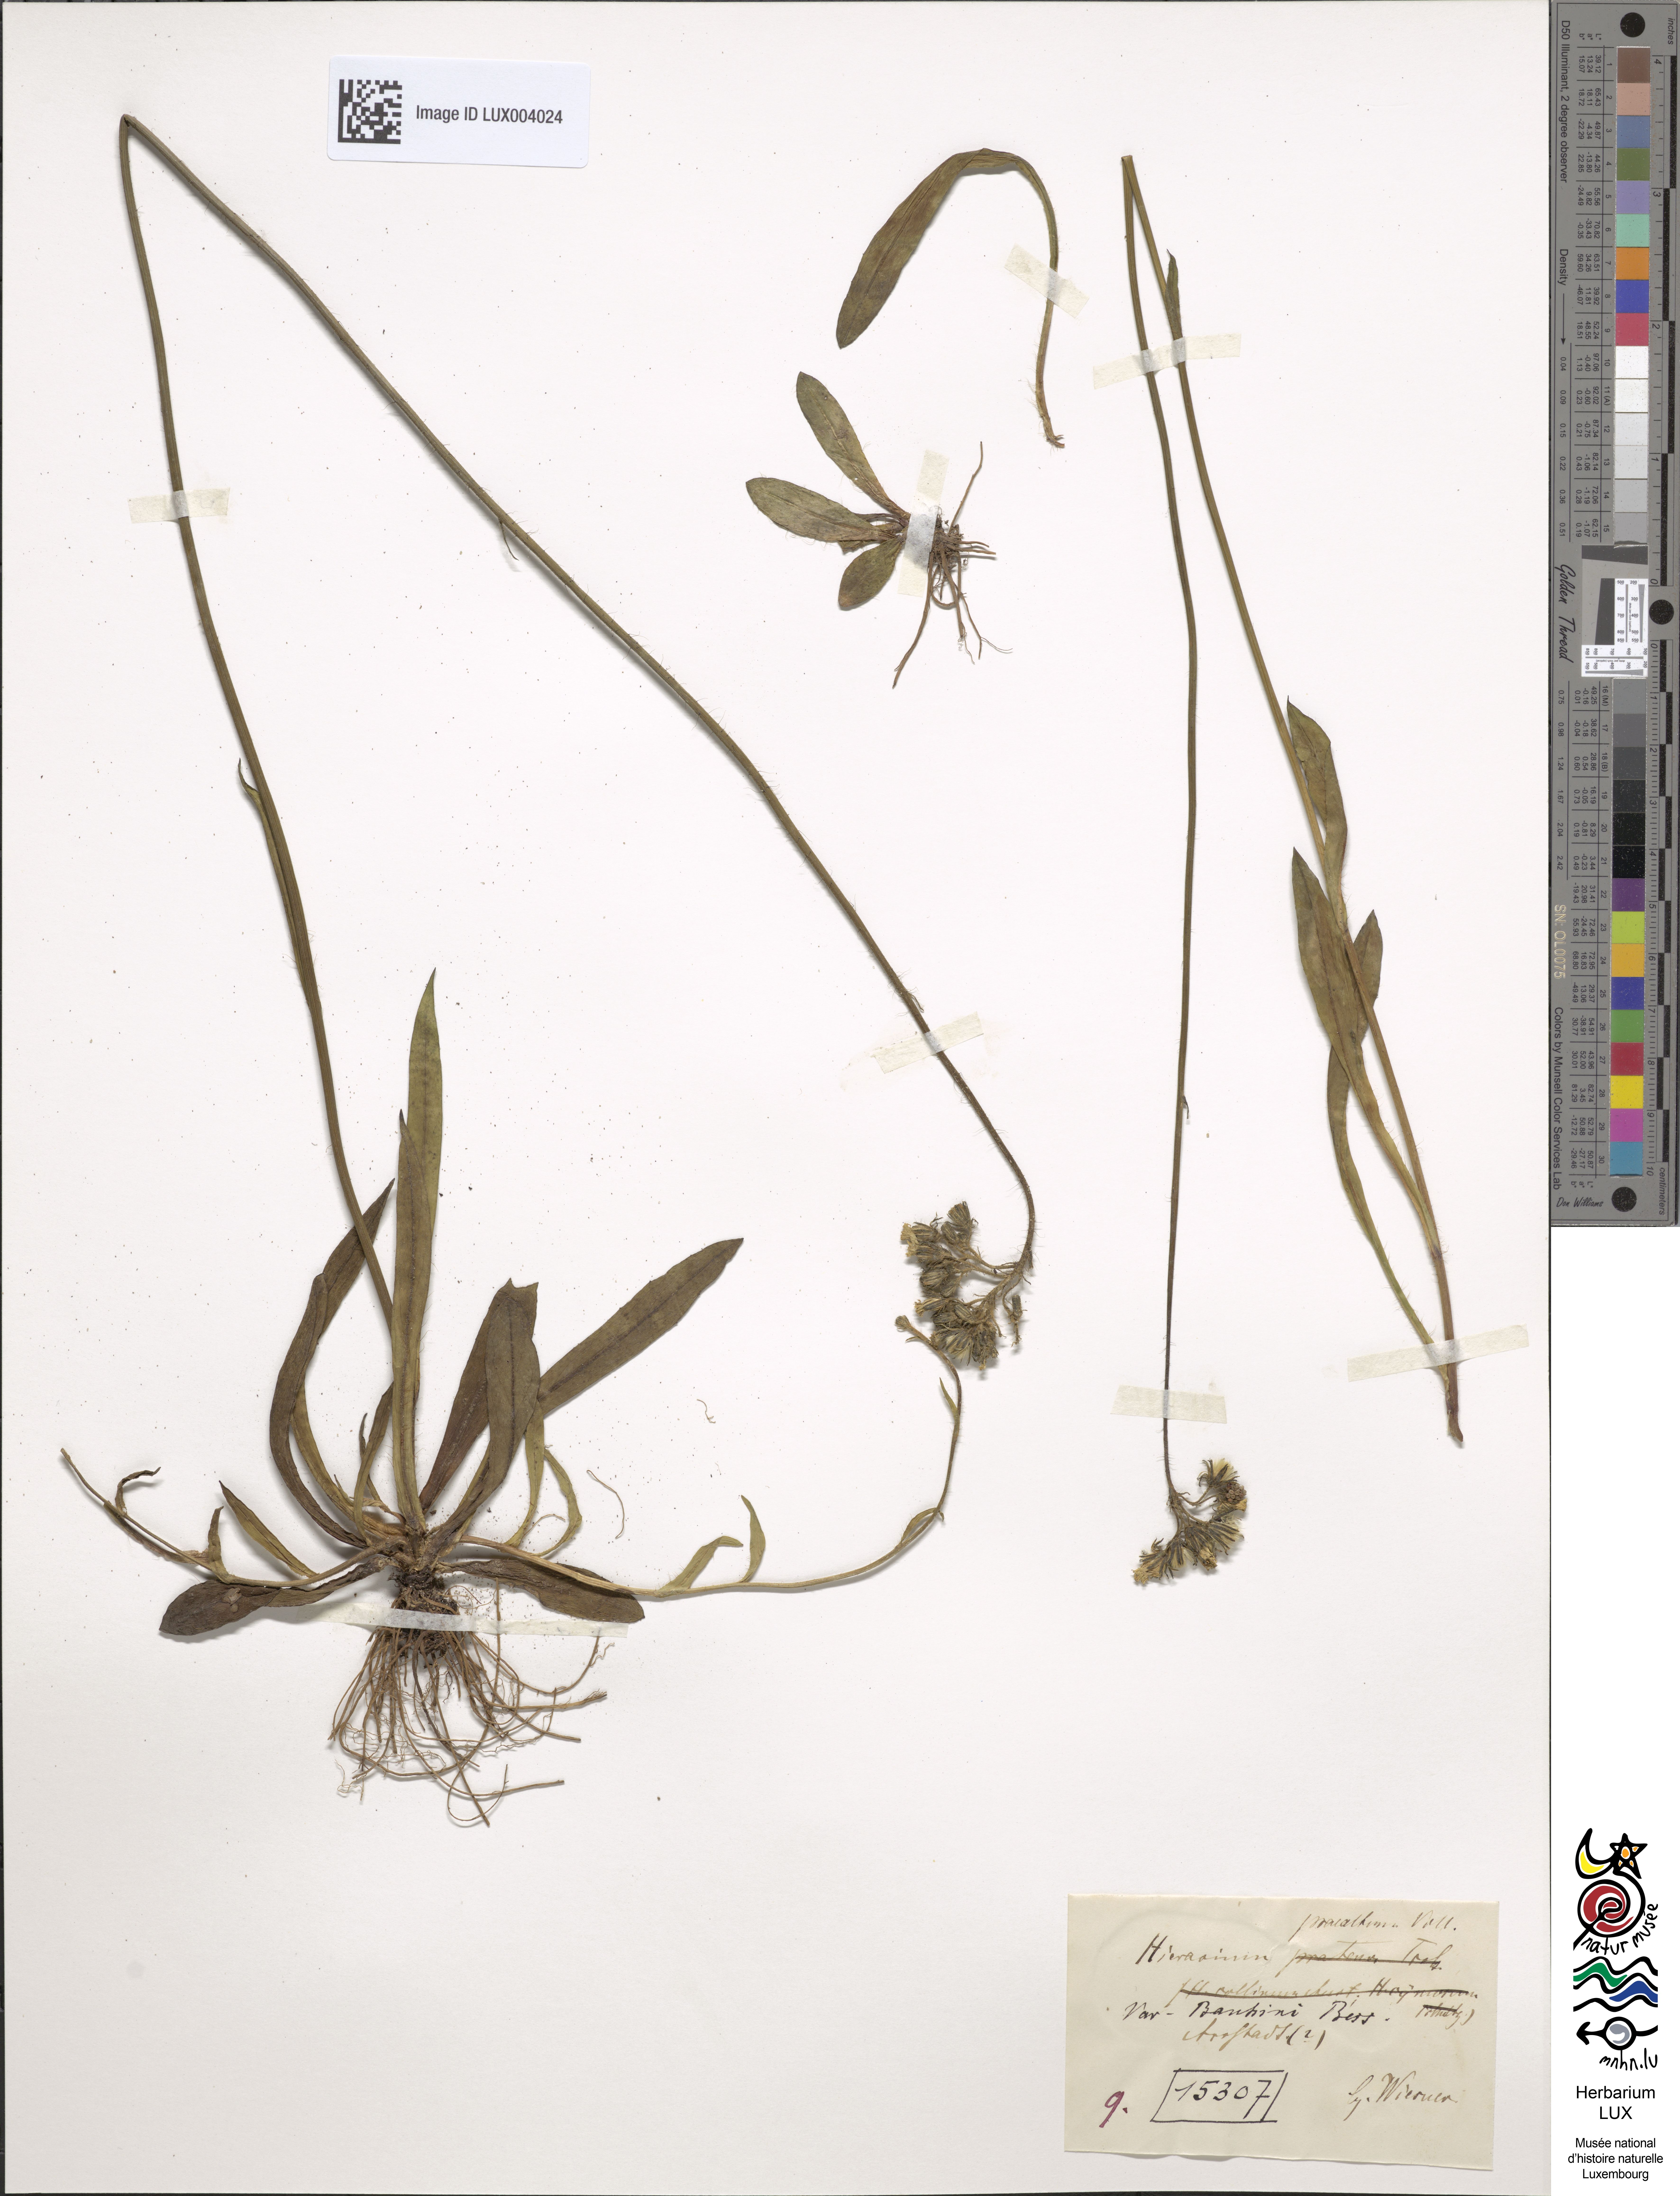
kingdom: Plantae
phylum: Tracheophyta
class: Magnoliopsida
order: Asterales
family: Asteraceae
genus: Hieracium
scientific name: Hieracium piloselloides
